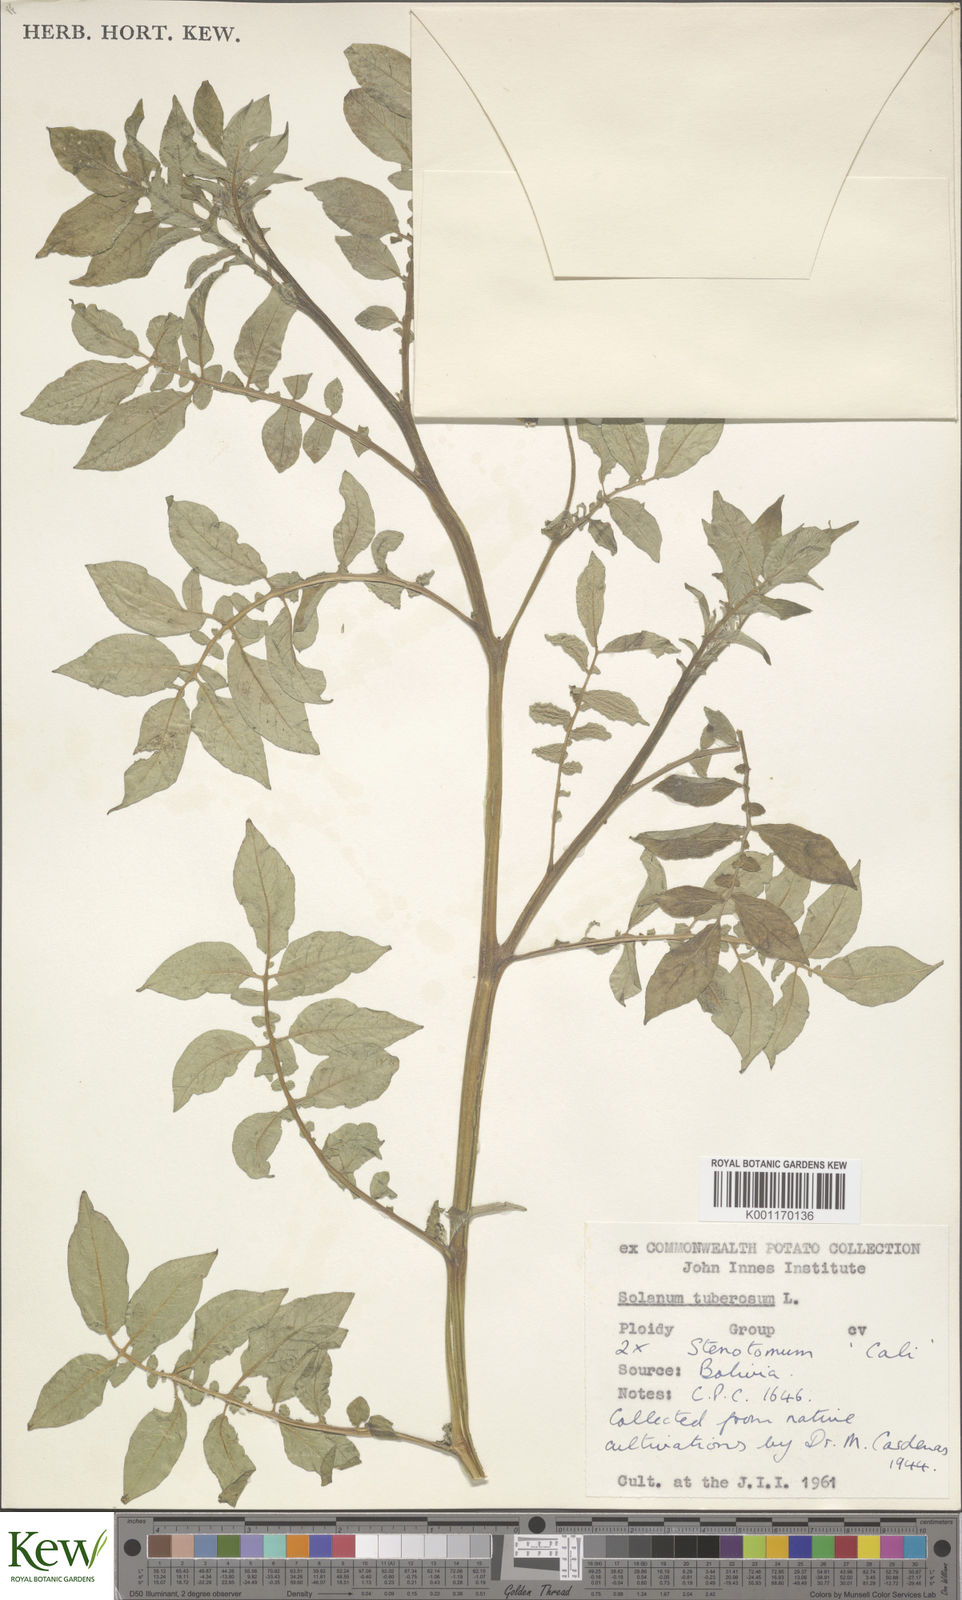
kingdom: Plantae
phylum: Tracheophyta
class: Magnoliopsida
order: Solanales
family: Solanaceae
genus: Solanum
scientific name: Solanum tuberosum
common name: Potato
